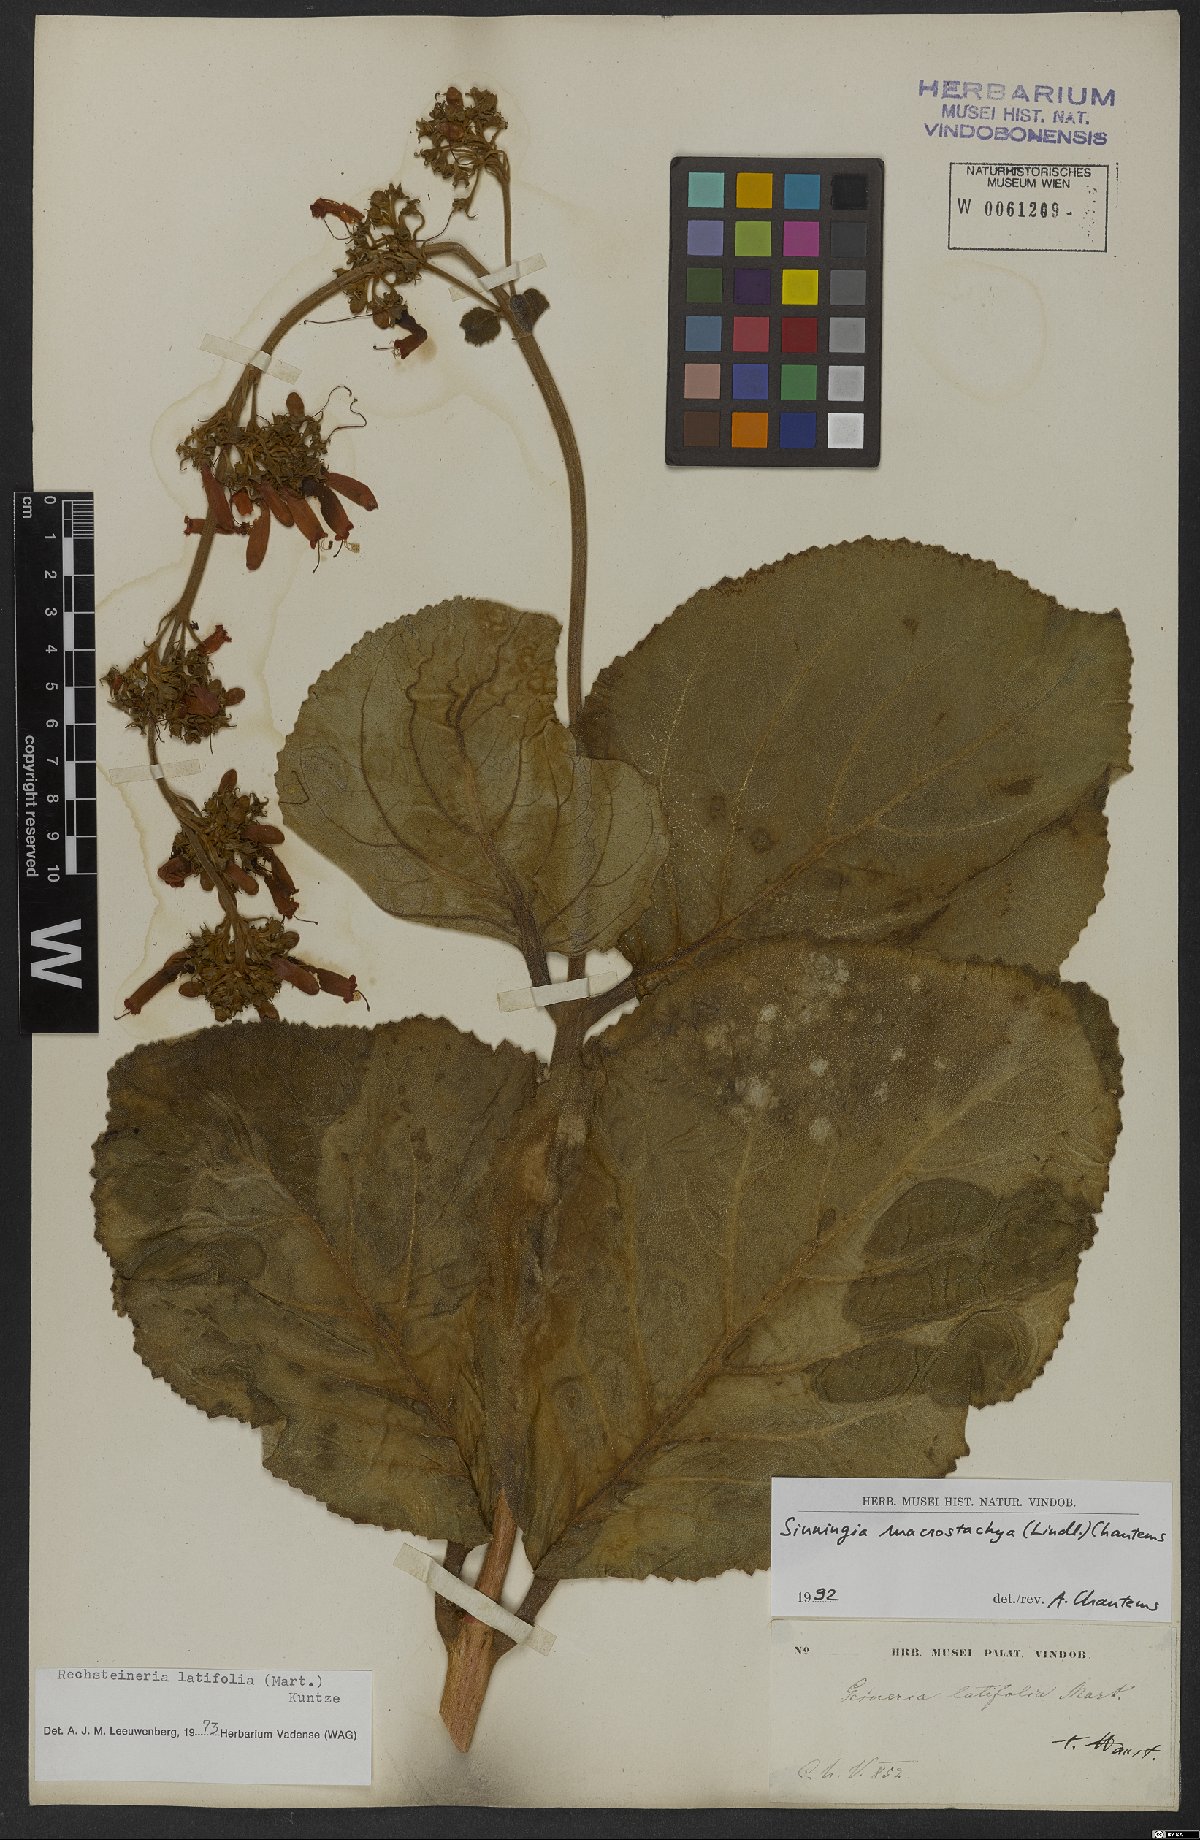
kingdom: Plantae
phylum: Tracheophyta
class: Magnoliopsida
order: Lamiales
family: Gesneriaceae
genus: Sinningia
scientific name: Sinningia macrostachya
